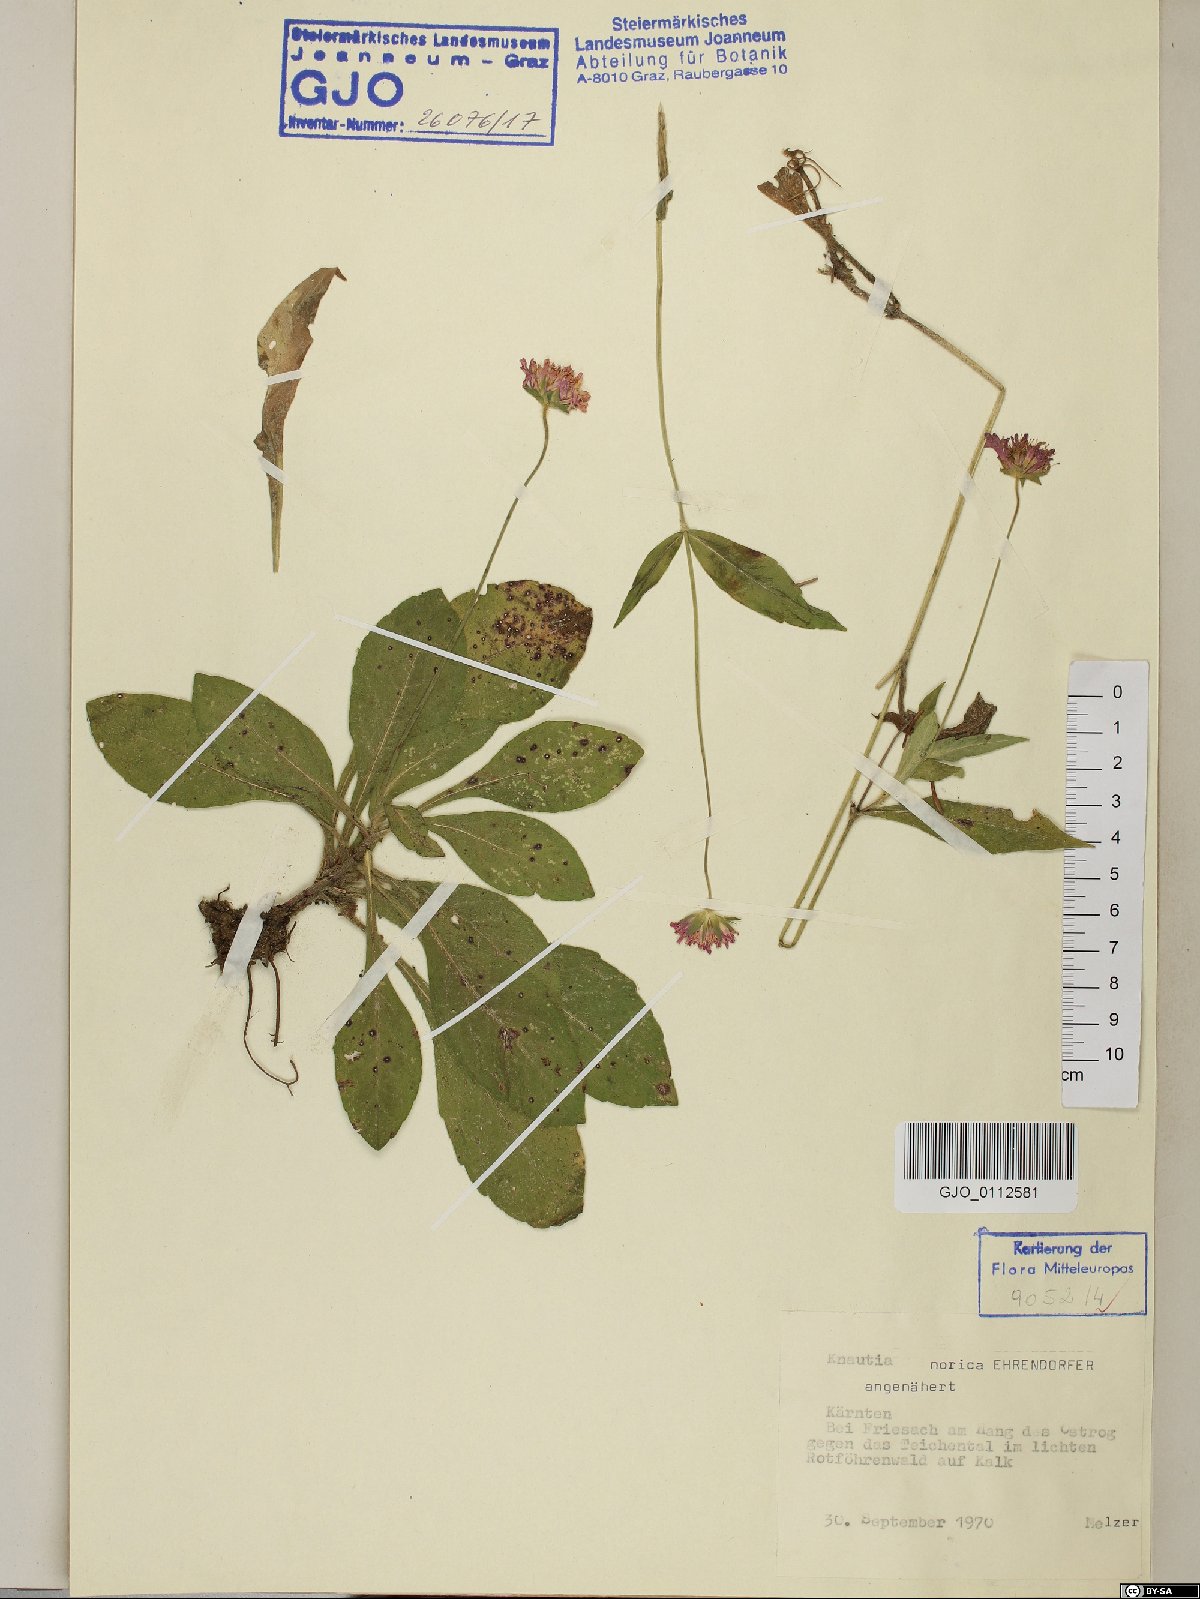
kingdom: Plantae
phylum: Tracheophyta
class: Magnoliopsida
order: Dipsacales
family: Caprifoliaceae
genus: Knautia
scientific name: Knautia norica
